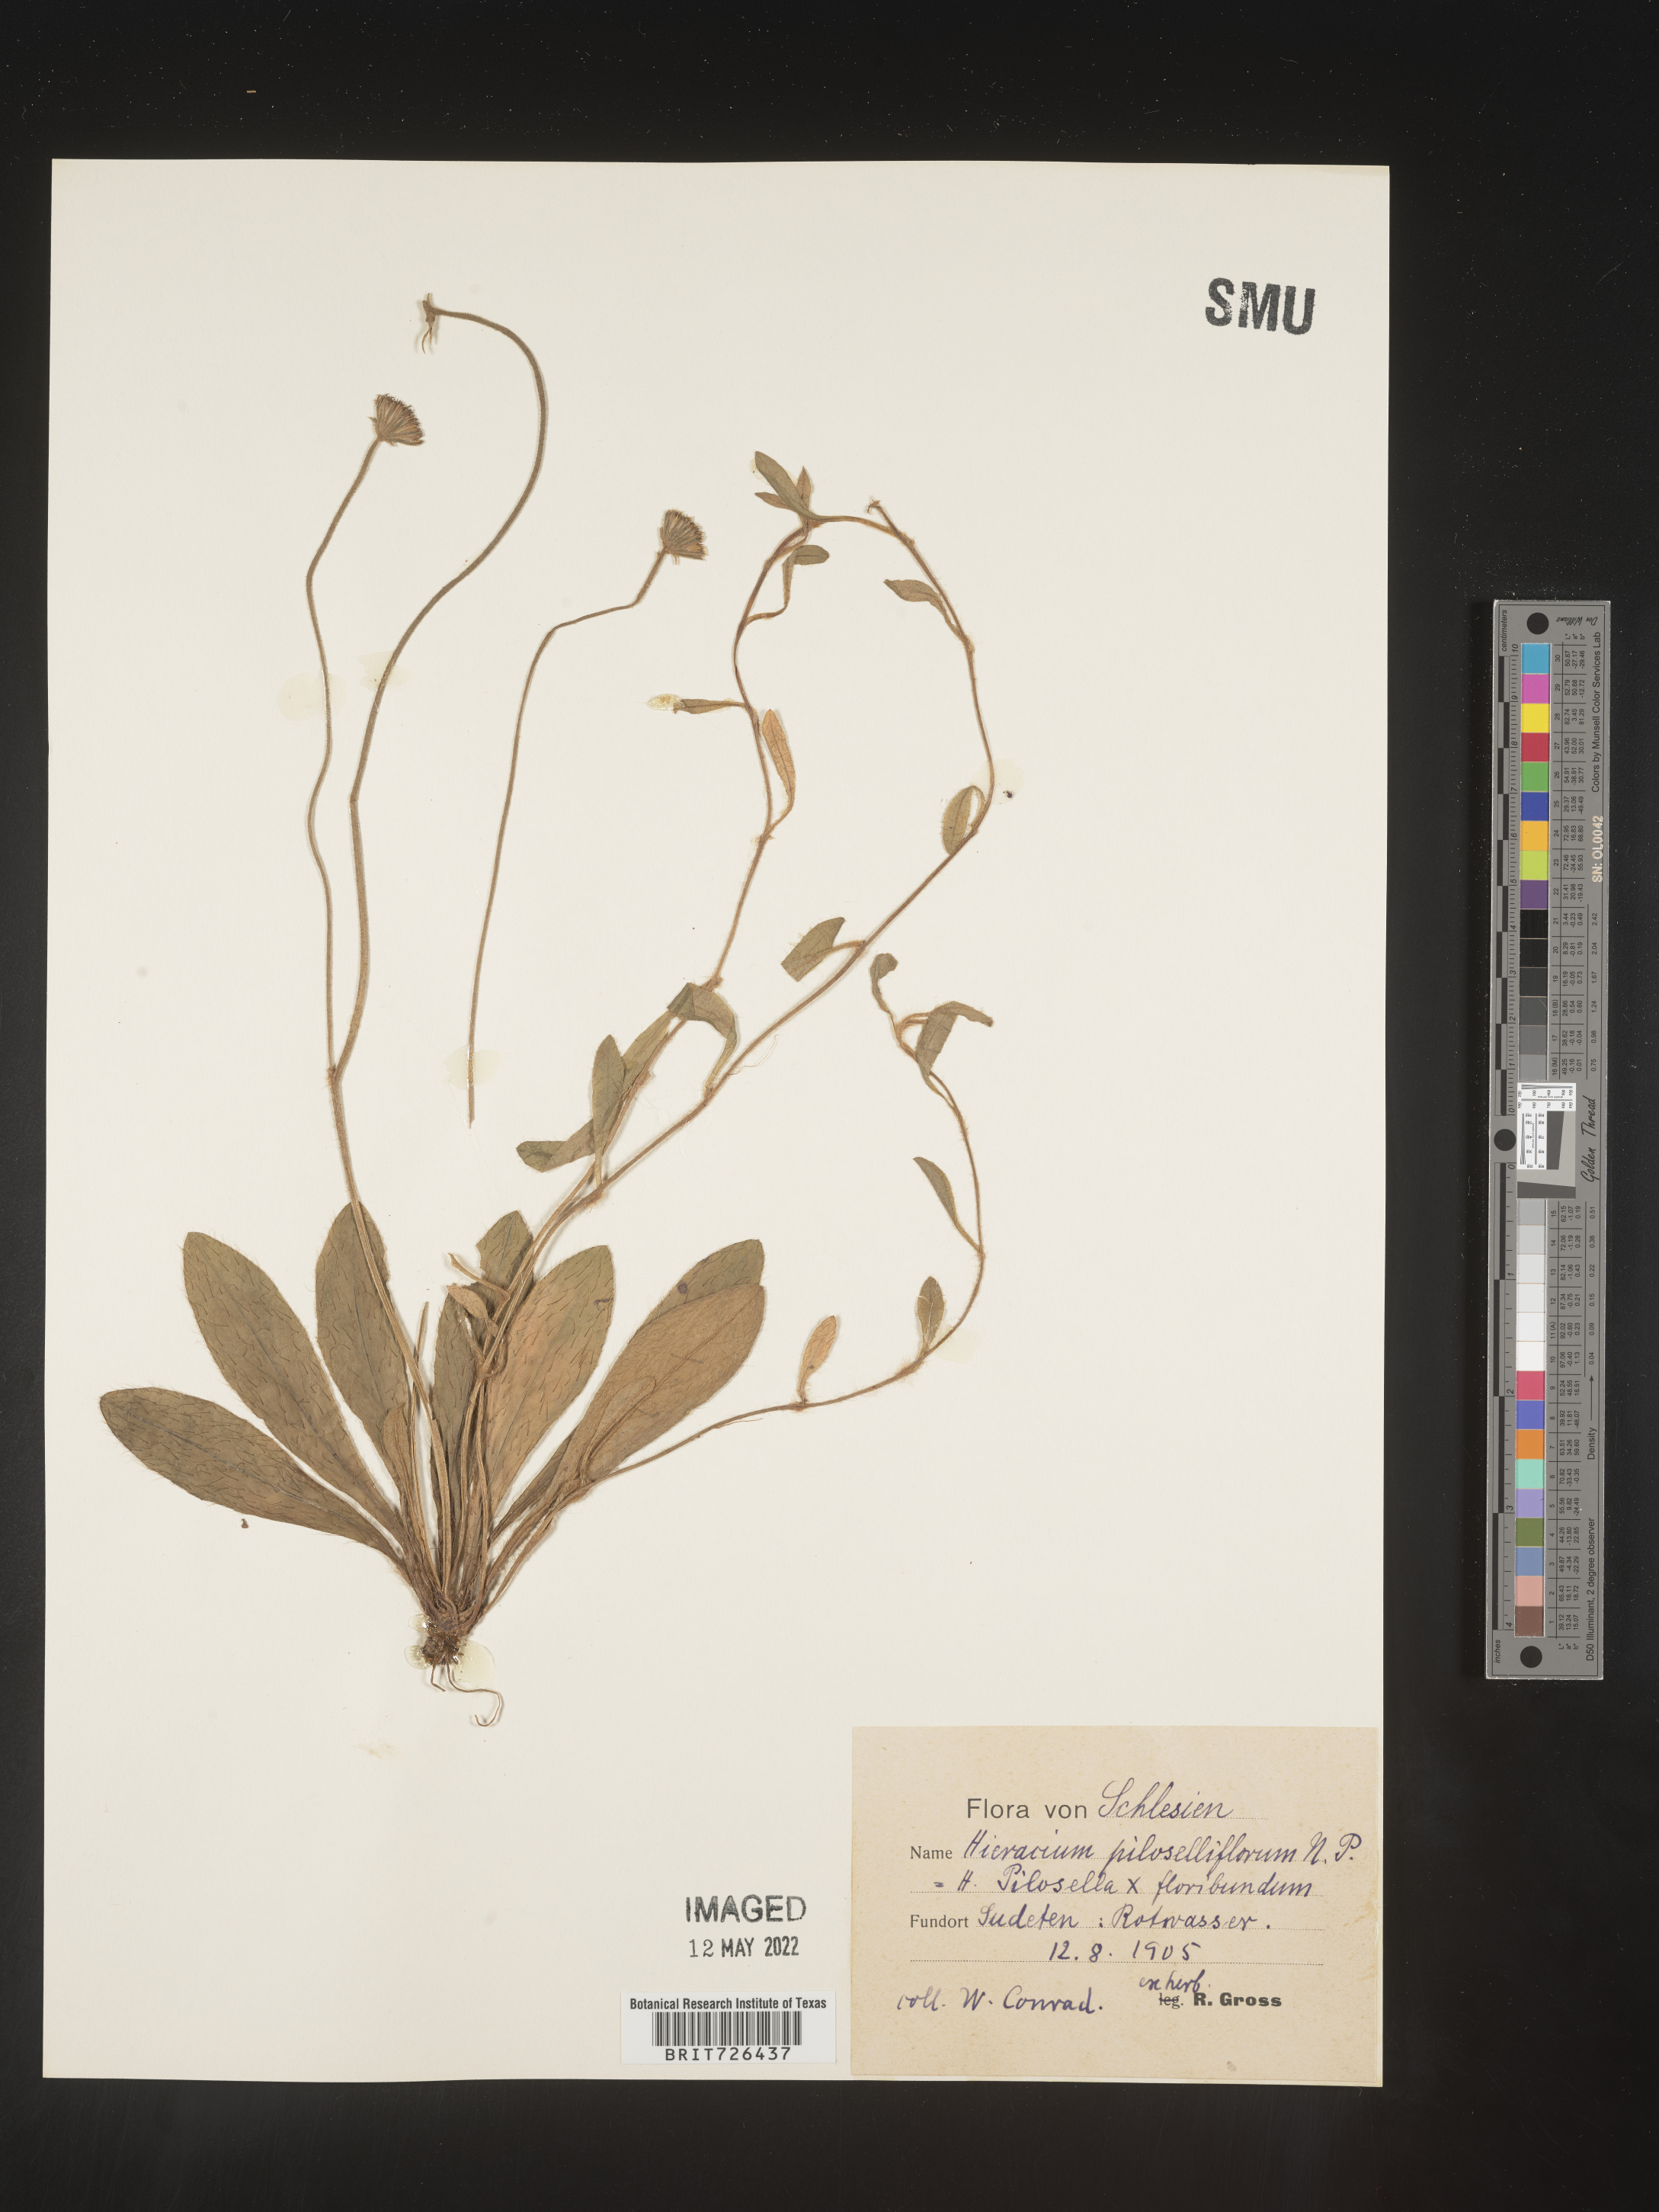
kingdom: Plantae
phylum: Tracheophyta
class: Magnoliopsida
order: Asterales
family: Asteraceae
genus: Hieracium
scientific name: Hieracium
